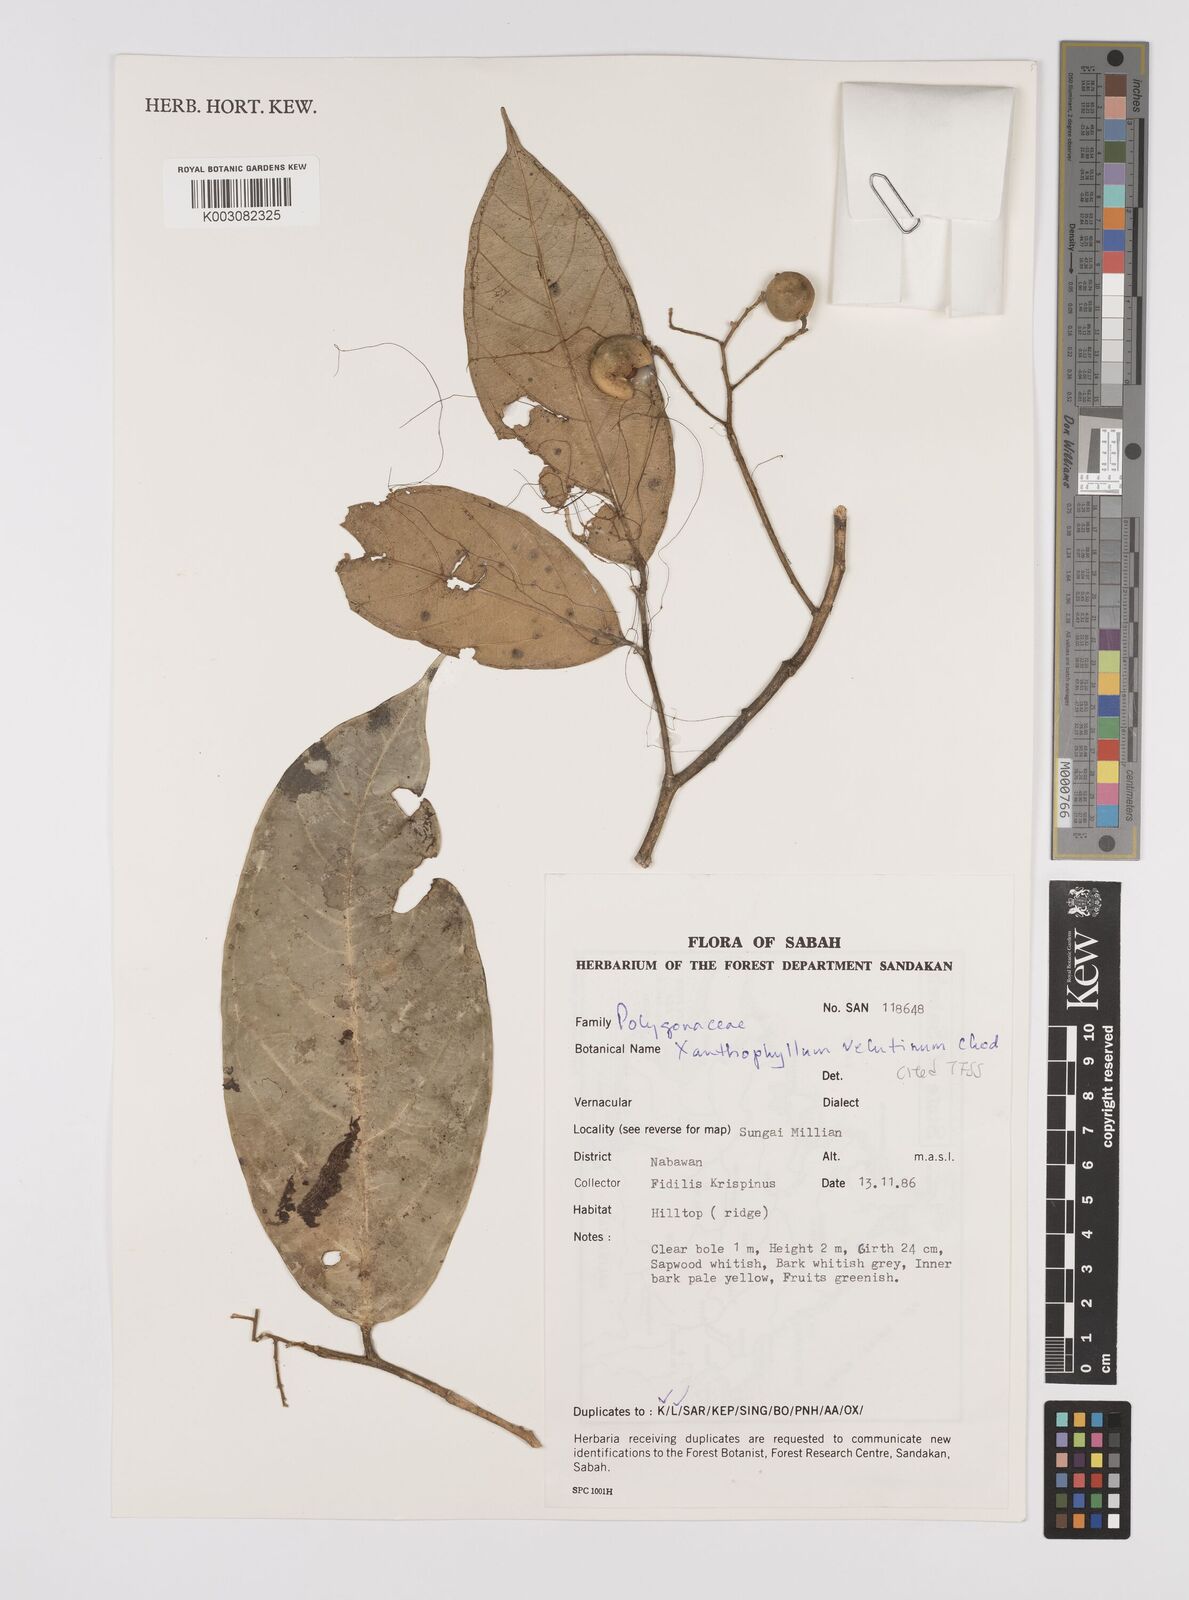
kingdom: Plantae
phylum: Tracheophyta
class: Magnoliopsida
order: Fabales
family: Polygalaceae
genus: Xanthophyllum
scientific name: Xanthophyllum velutinum
